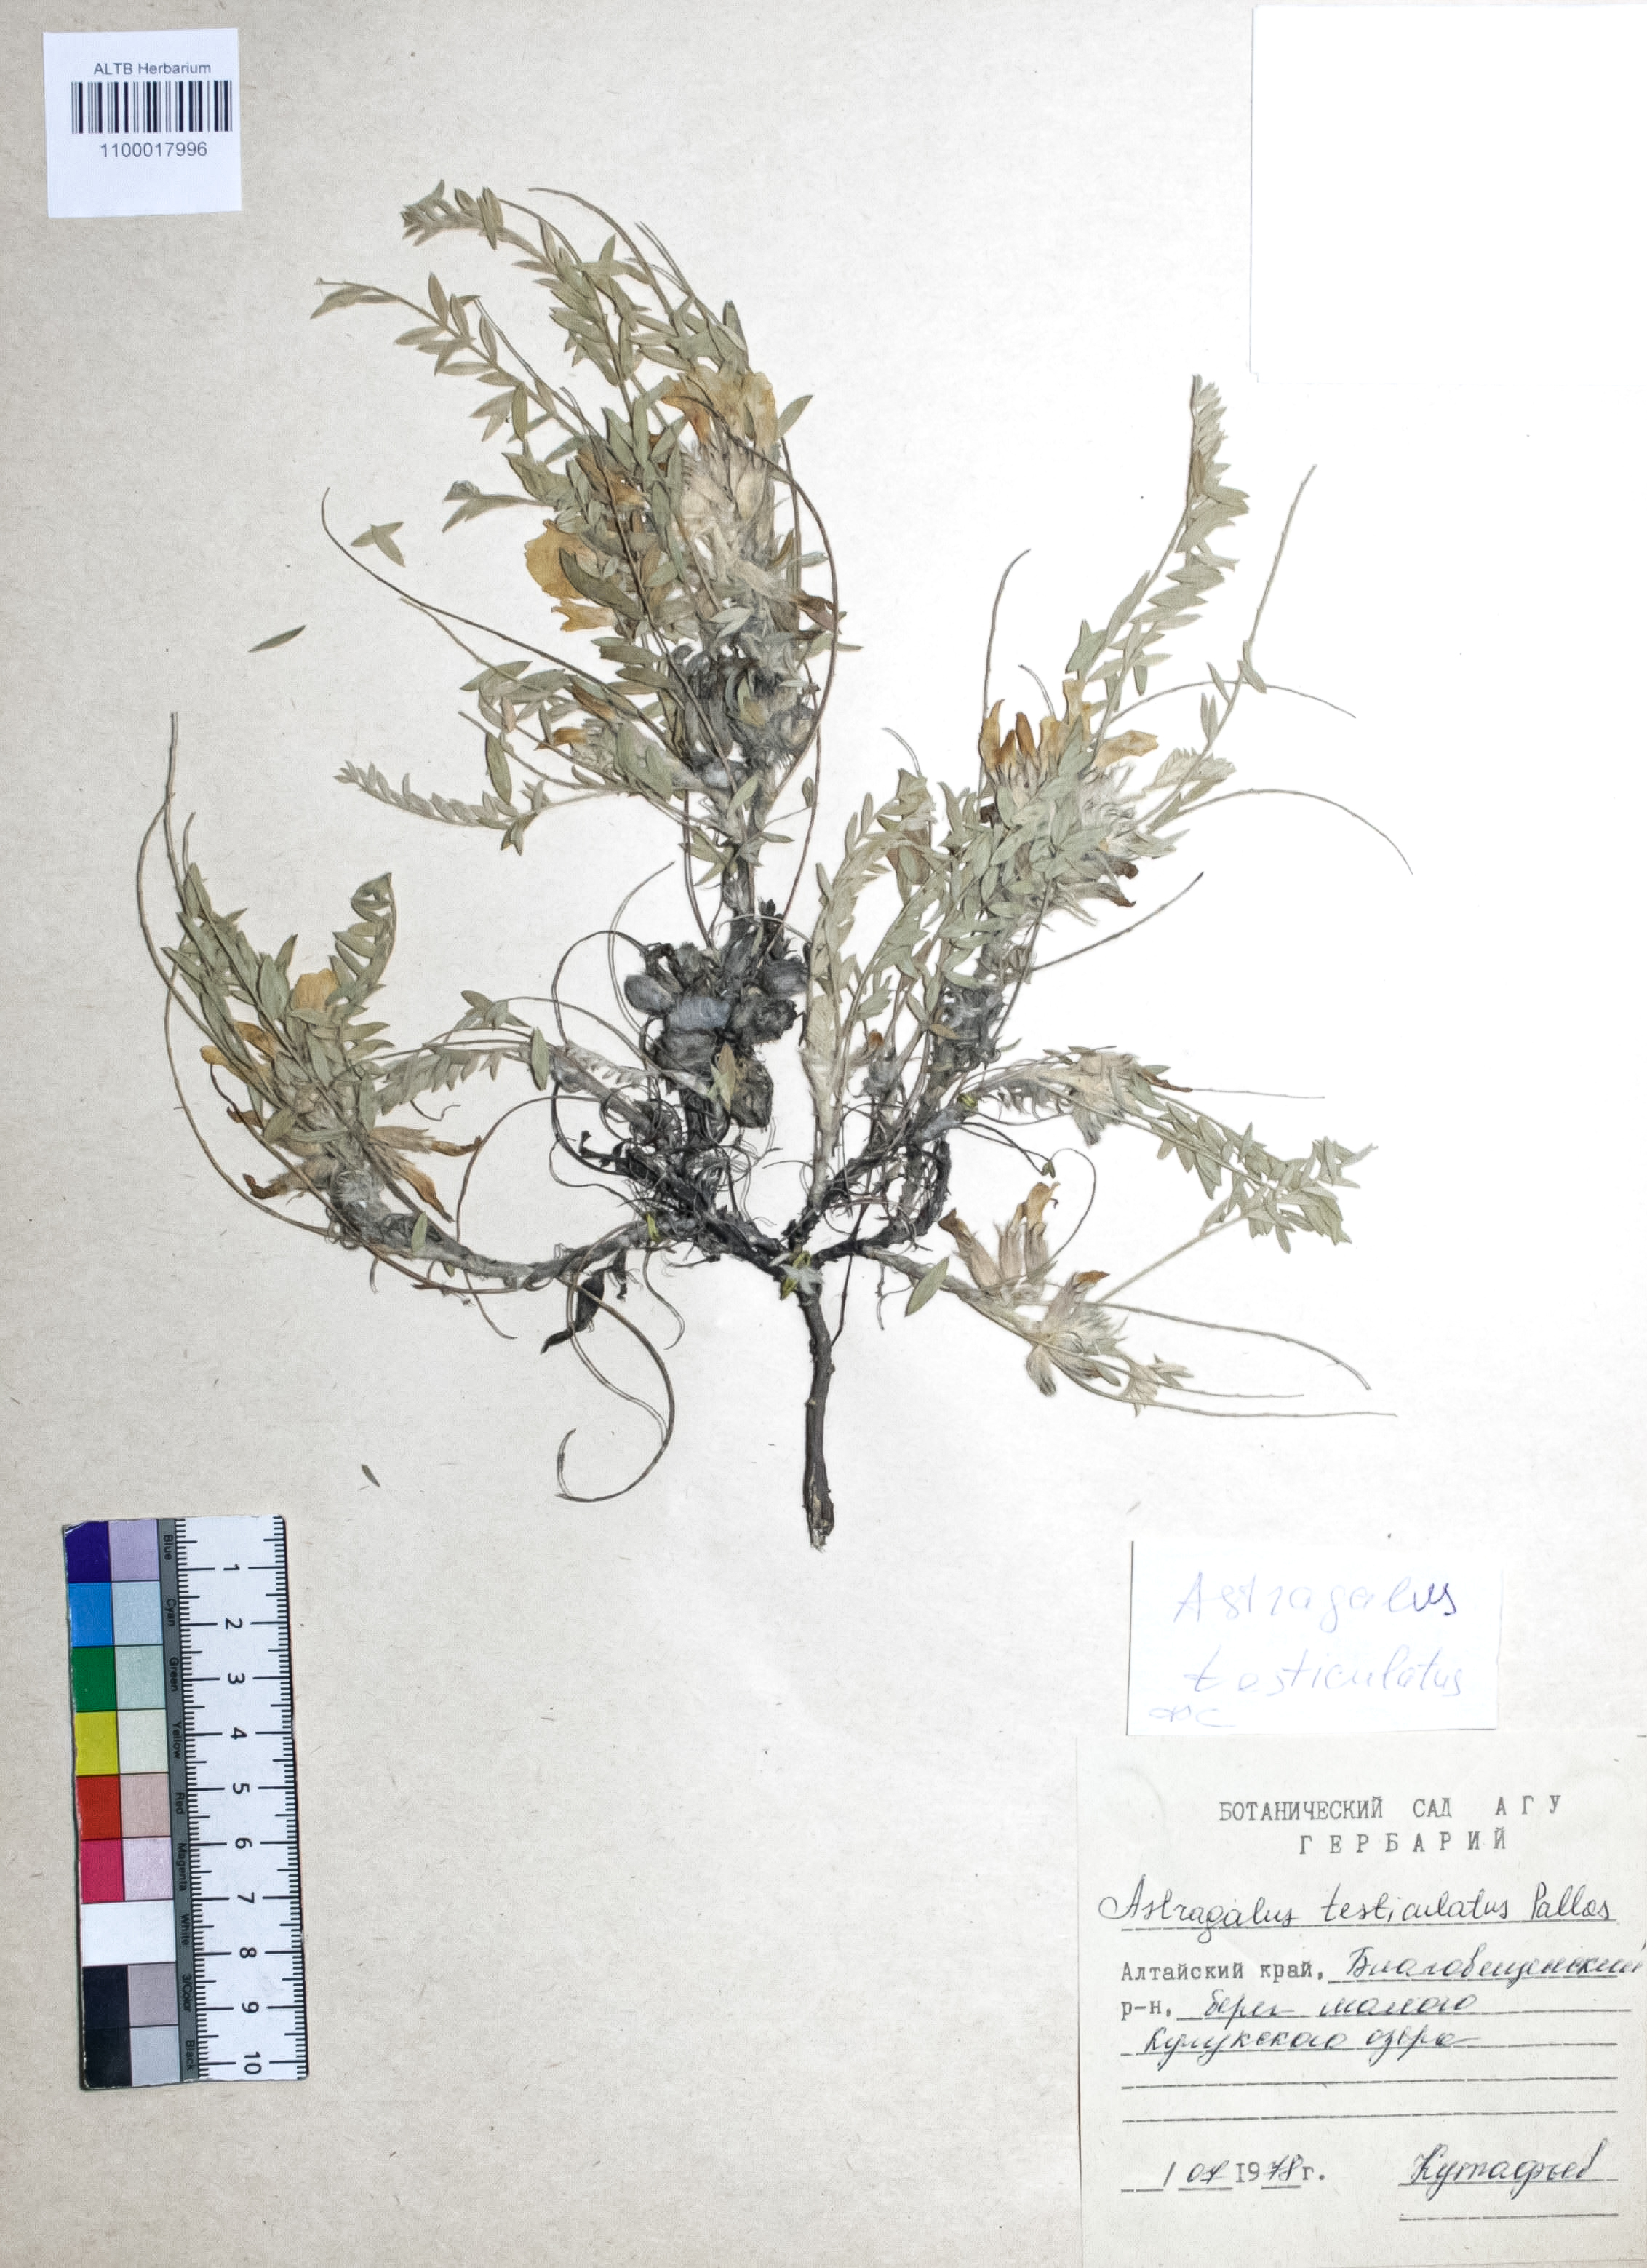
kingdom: Plantae
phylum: Tracheophyta
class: Magnoliopsida
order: Fabales
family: Fabaceae
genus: Astragalus
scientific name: Astragalus testiculatus
